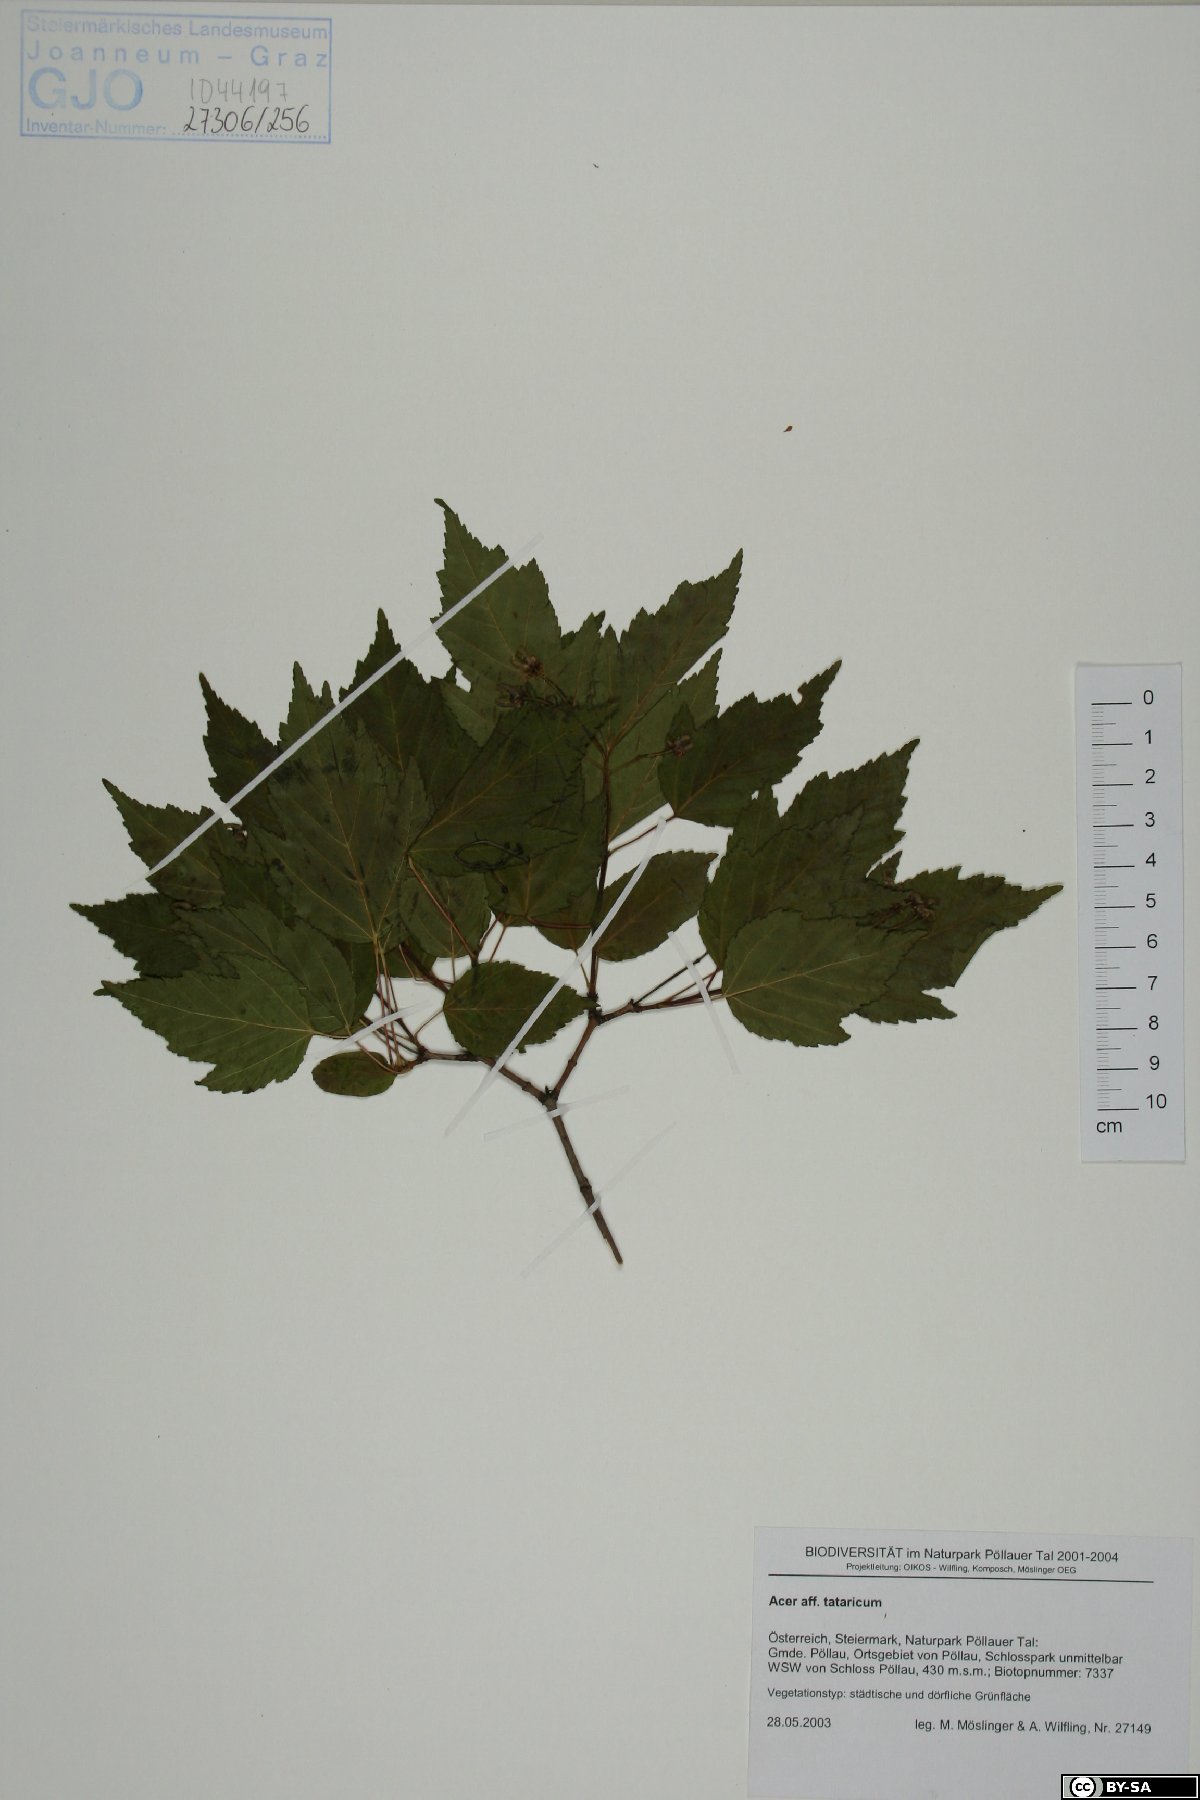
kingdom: Plantae
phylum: Tracheophyta
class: Magnoliopsida
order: Sapindales
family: Sapindaceae
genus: Acer
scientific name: Acer tataricum
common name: Tartar maple
